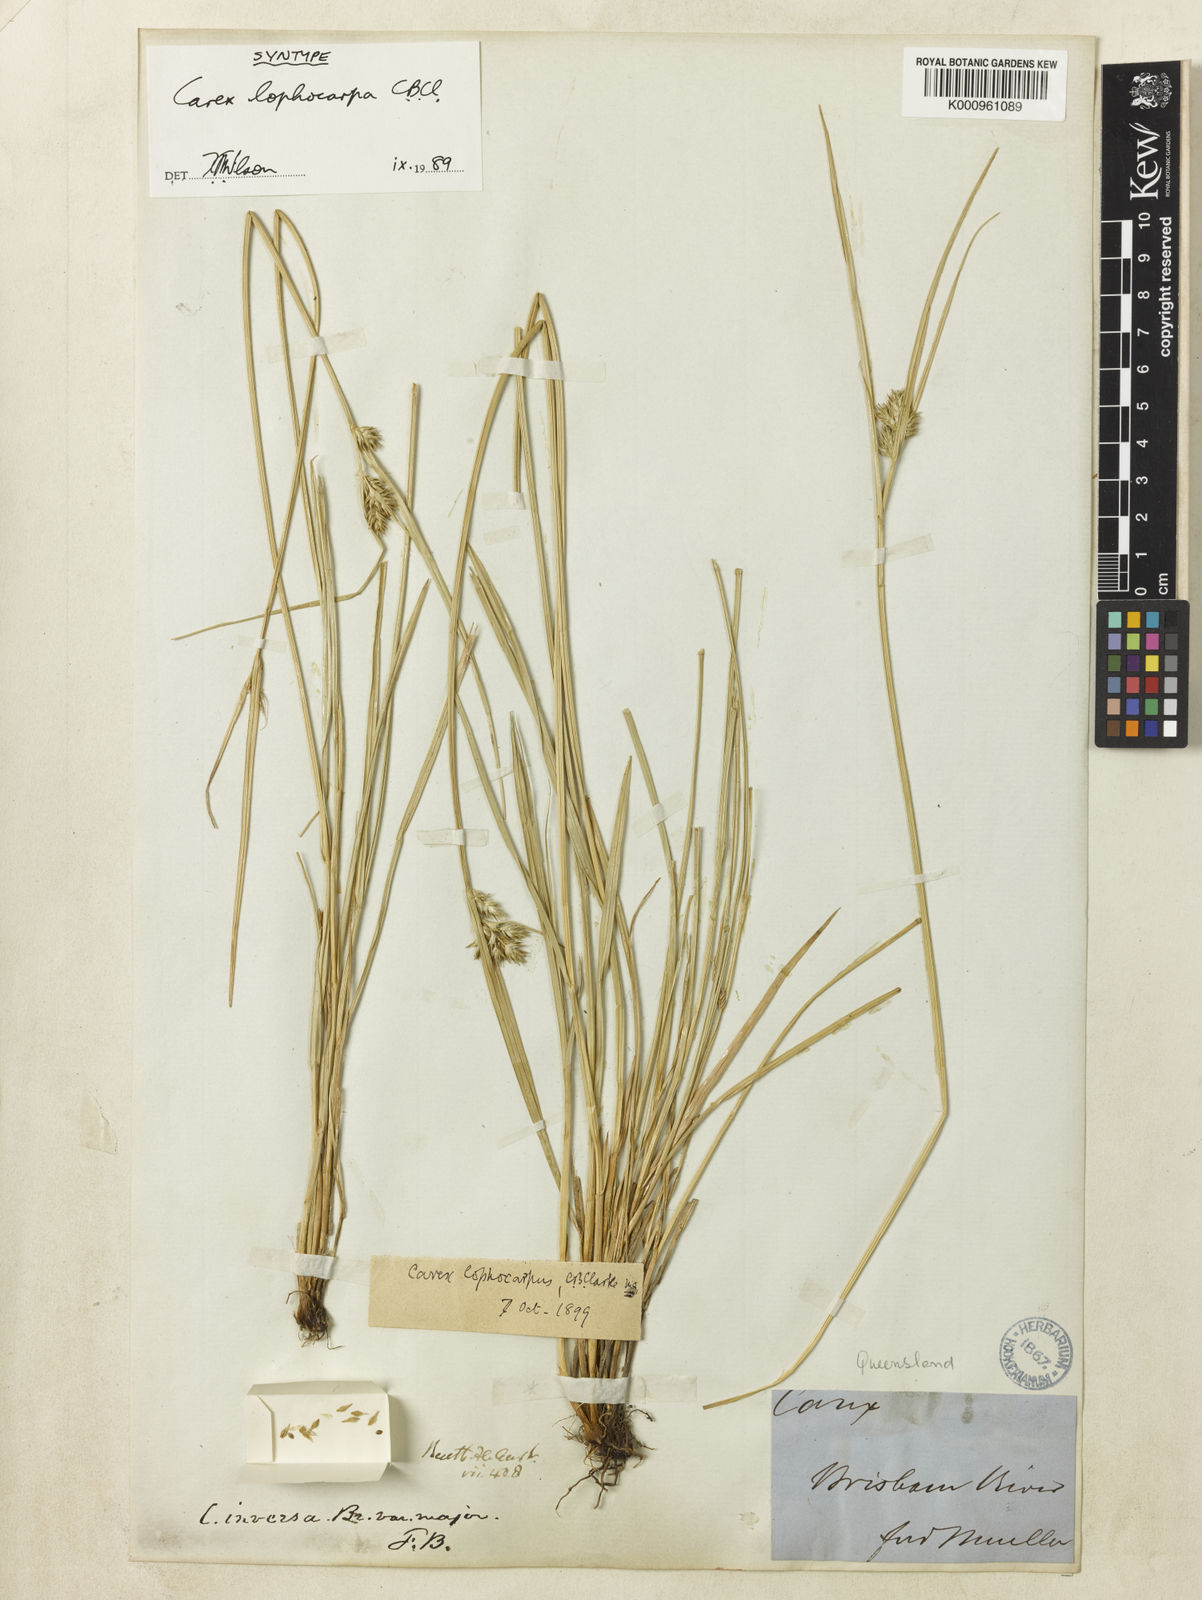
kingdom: Plantae
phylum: Tracheophyta
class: Liliopsida
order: Poales
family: Cyperaceae
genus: Carex
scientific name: Carex lophocarpa
